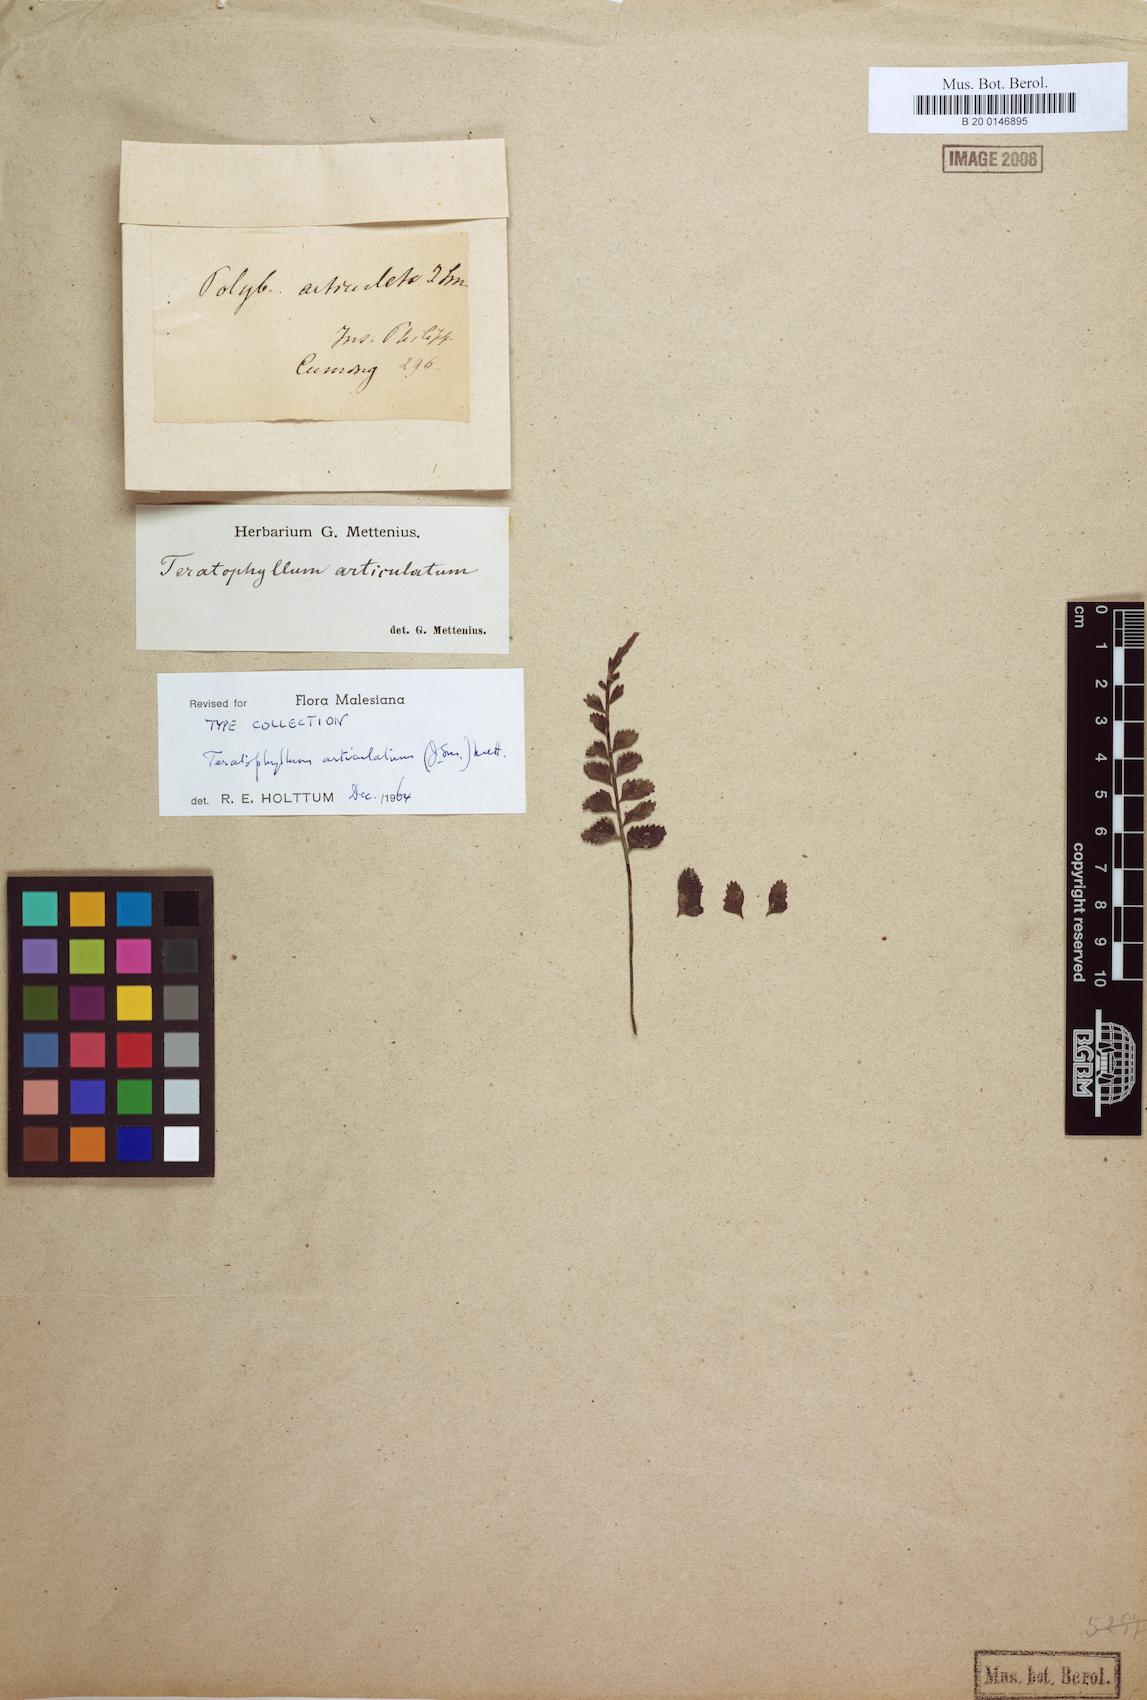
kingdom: Plantae
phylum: Tracheophyta
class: Polypodiopsida
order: Polypodiales
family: Dryopteridaceae
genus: Arthrobotrya
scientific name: Arthrobotrya articulata
